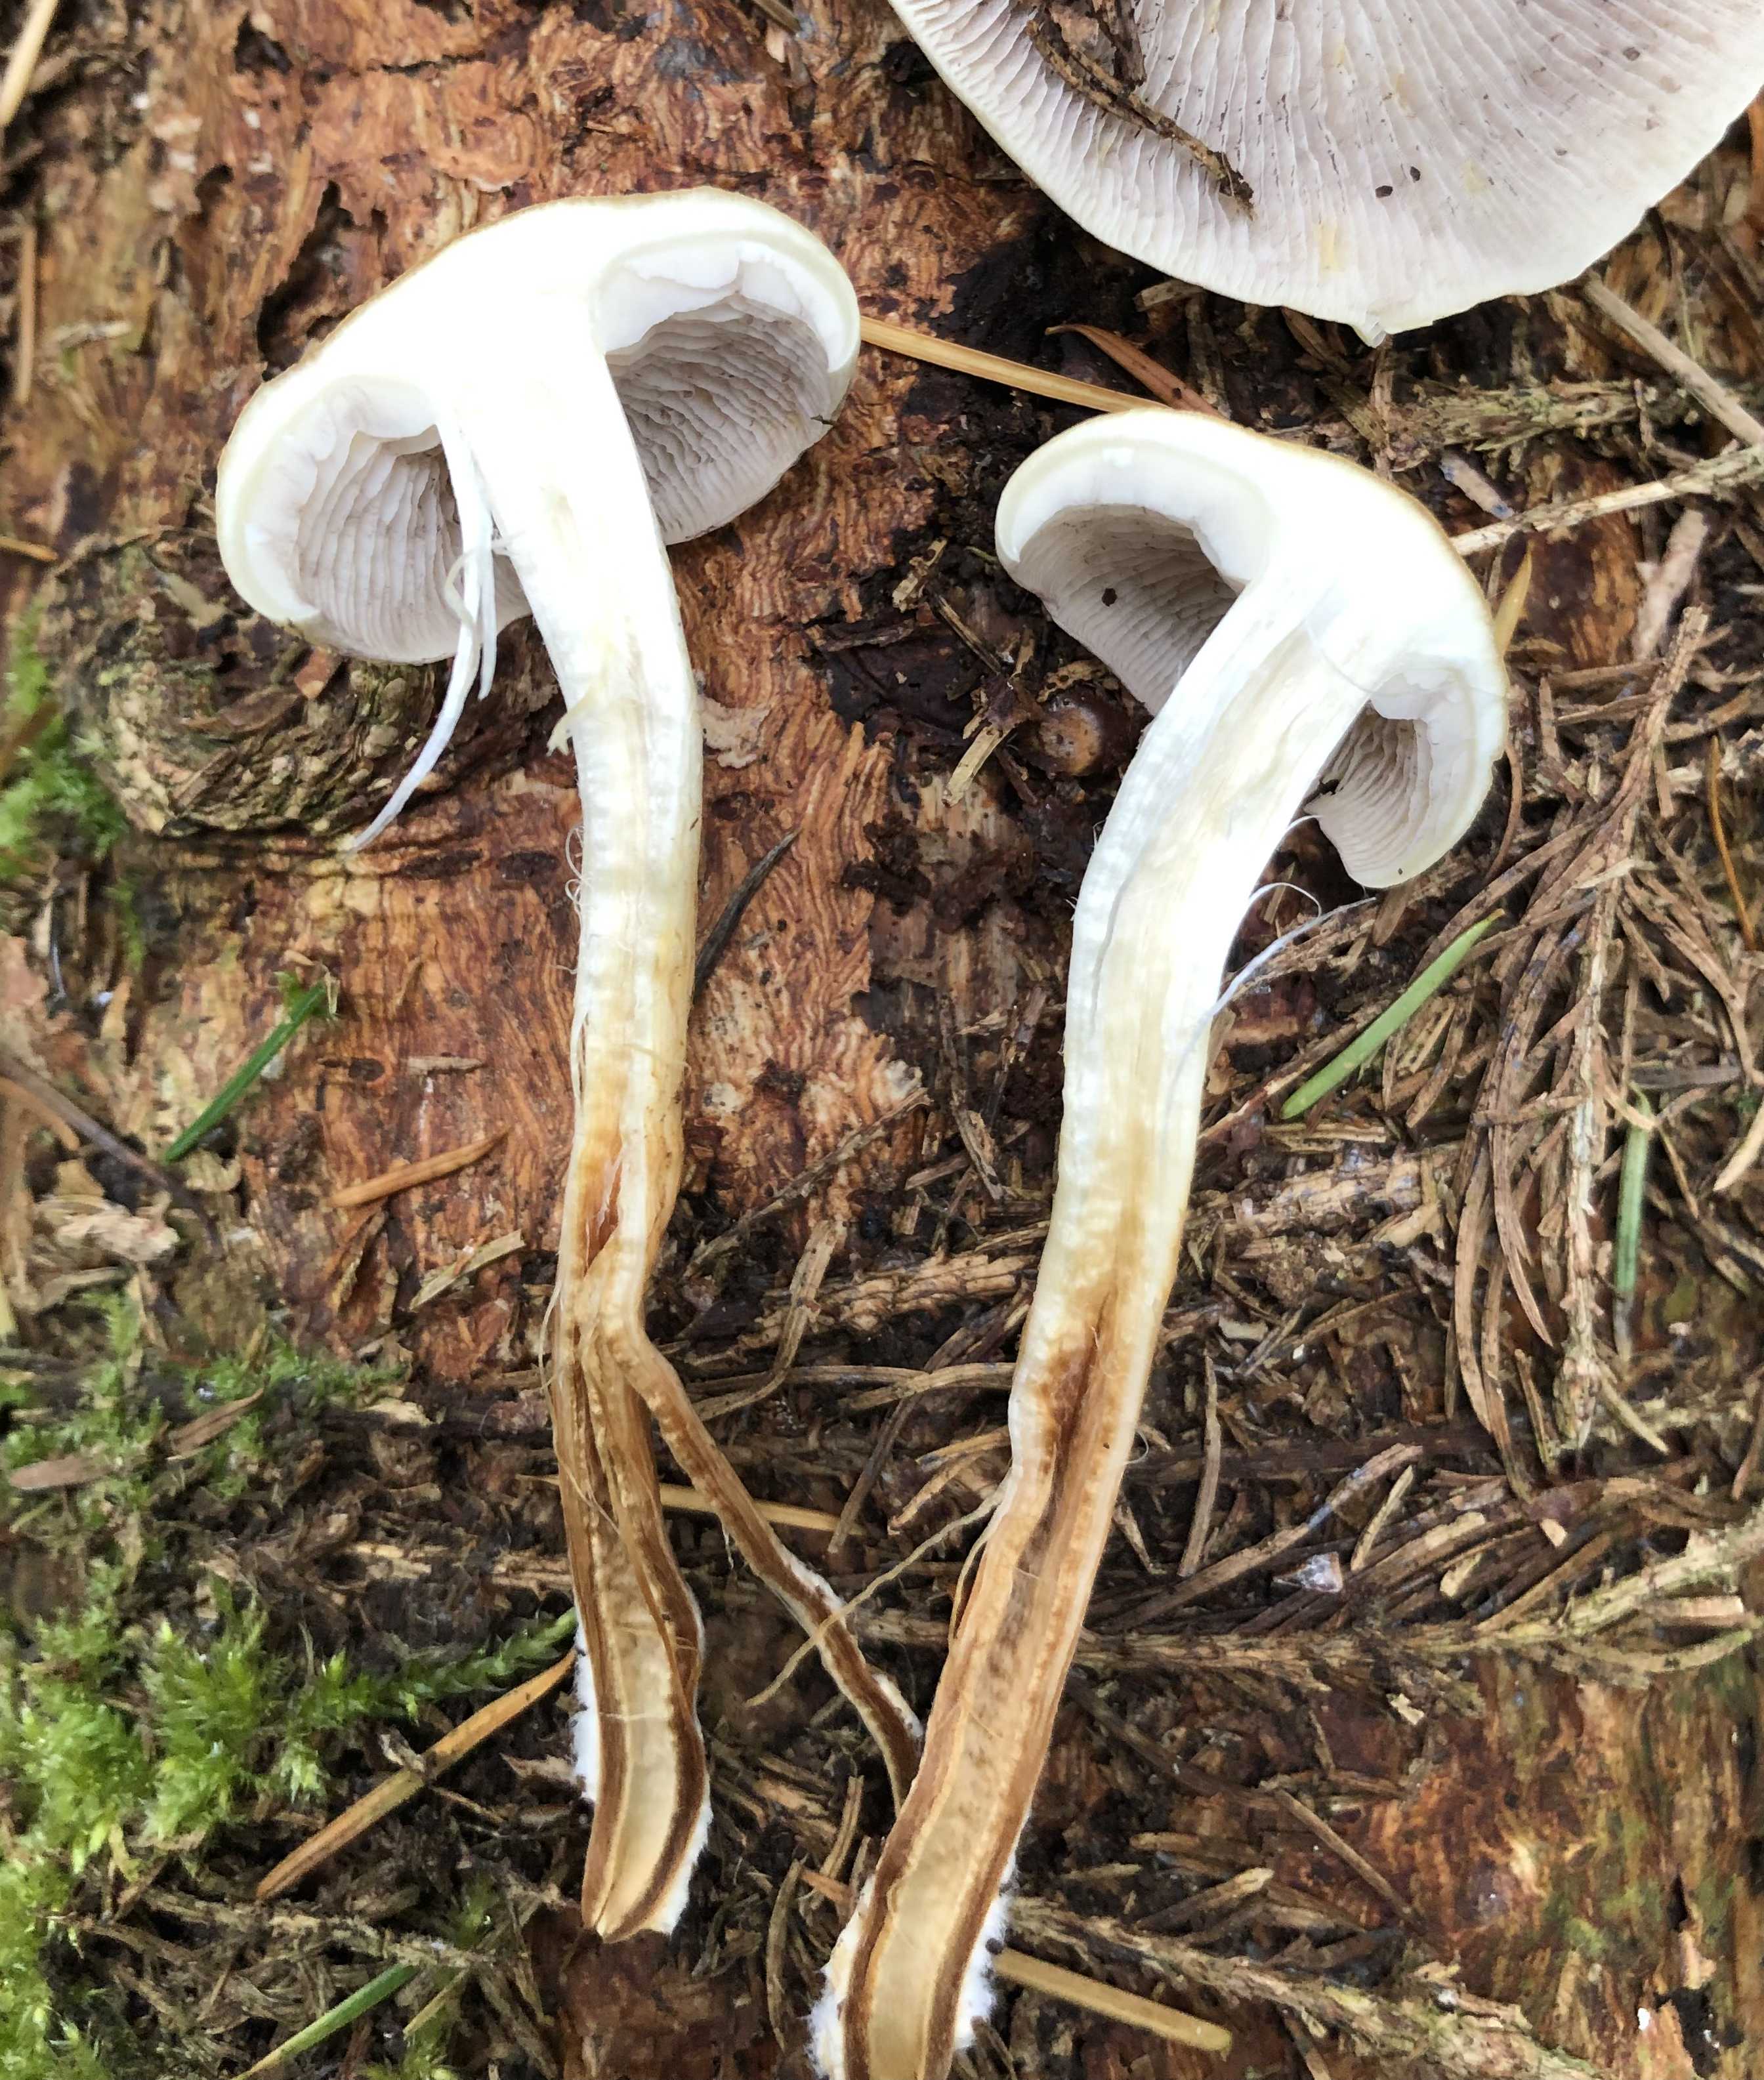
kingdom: Fungi
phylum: Basidiomycota
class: Agaricomycetes
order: Agaricales
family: Strophariaceae
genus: Hypholoma
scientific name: Hypholoma capnoides
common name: gran-svovlhat
